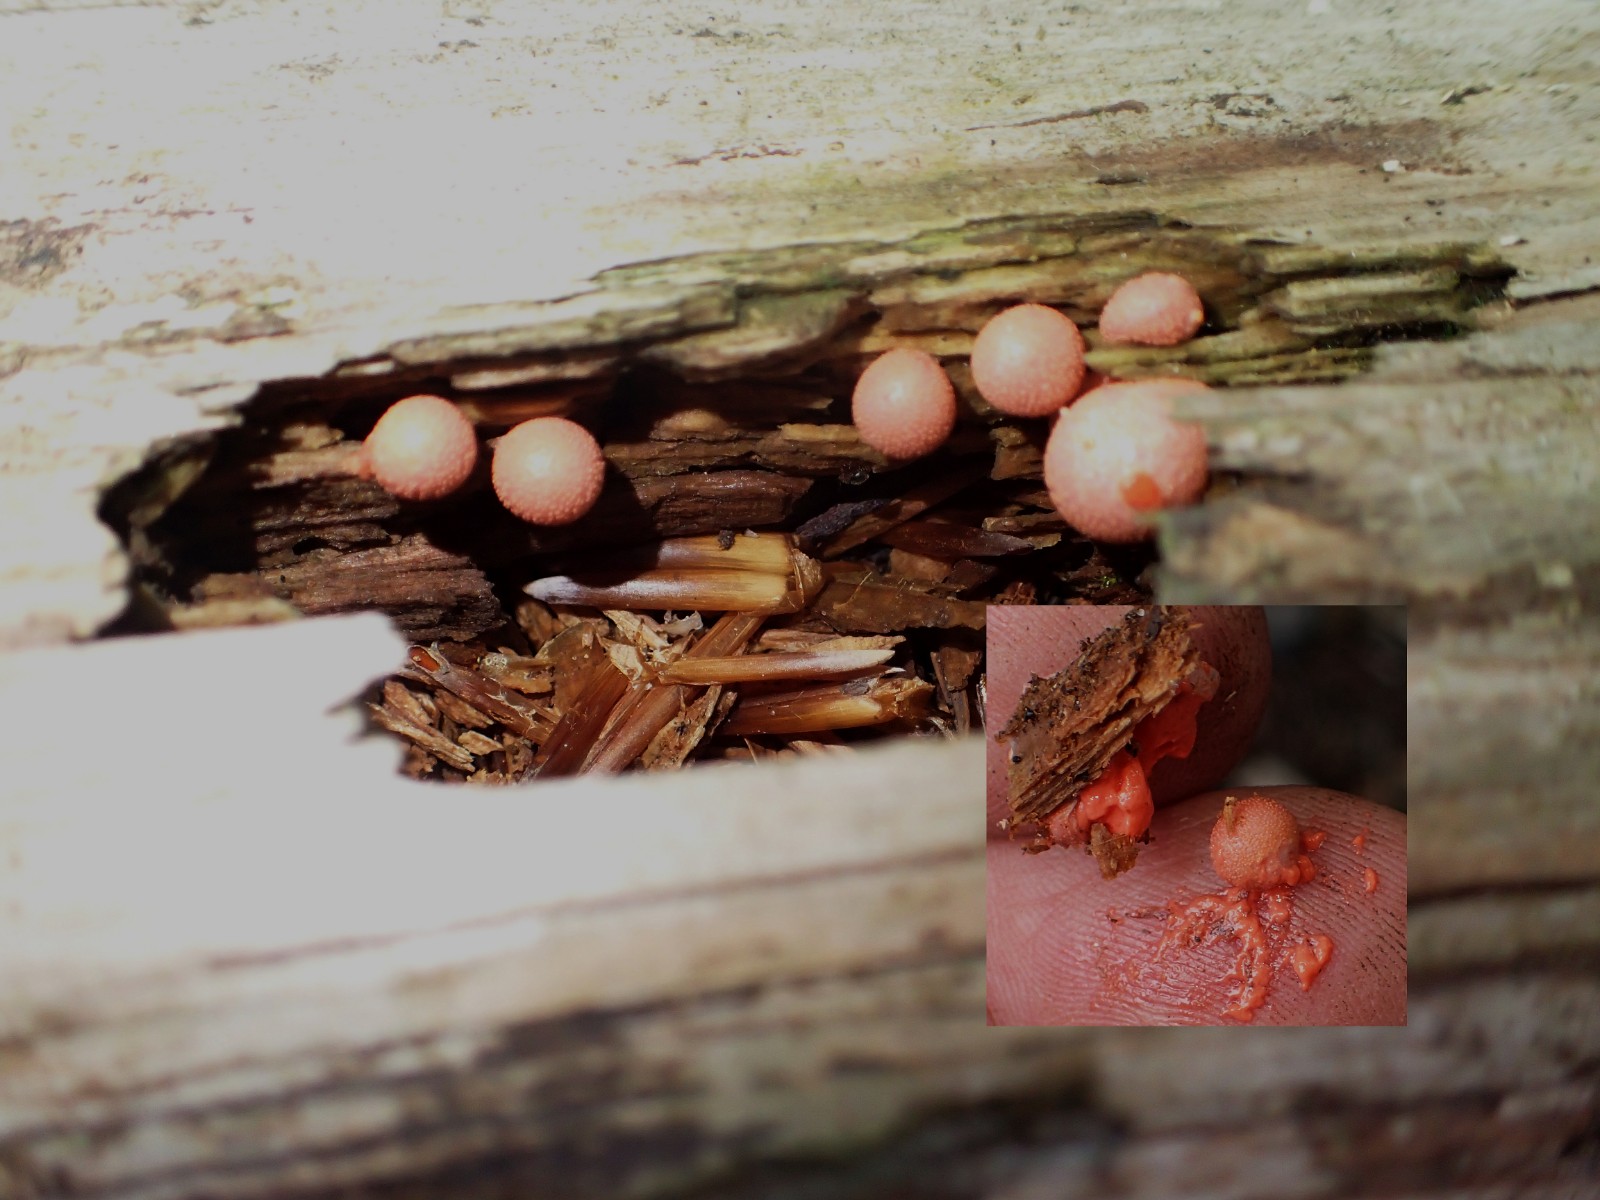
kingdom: Protozoa
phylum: Mycetozoa
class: Myxomycetes
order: Cribrariales
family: Tubiferaceae
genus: Lycogala
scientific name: Lycogala epidendrum
